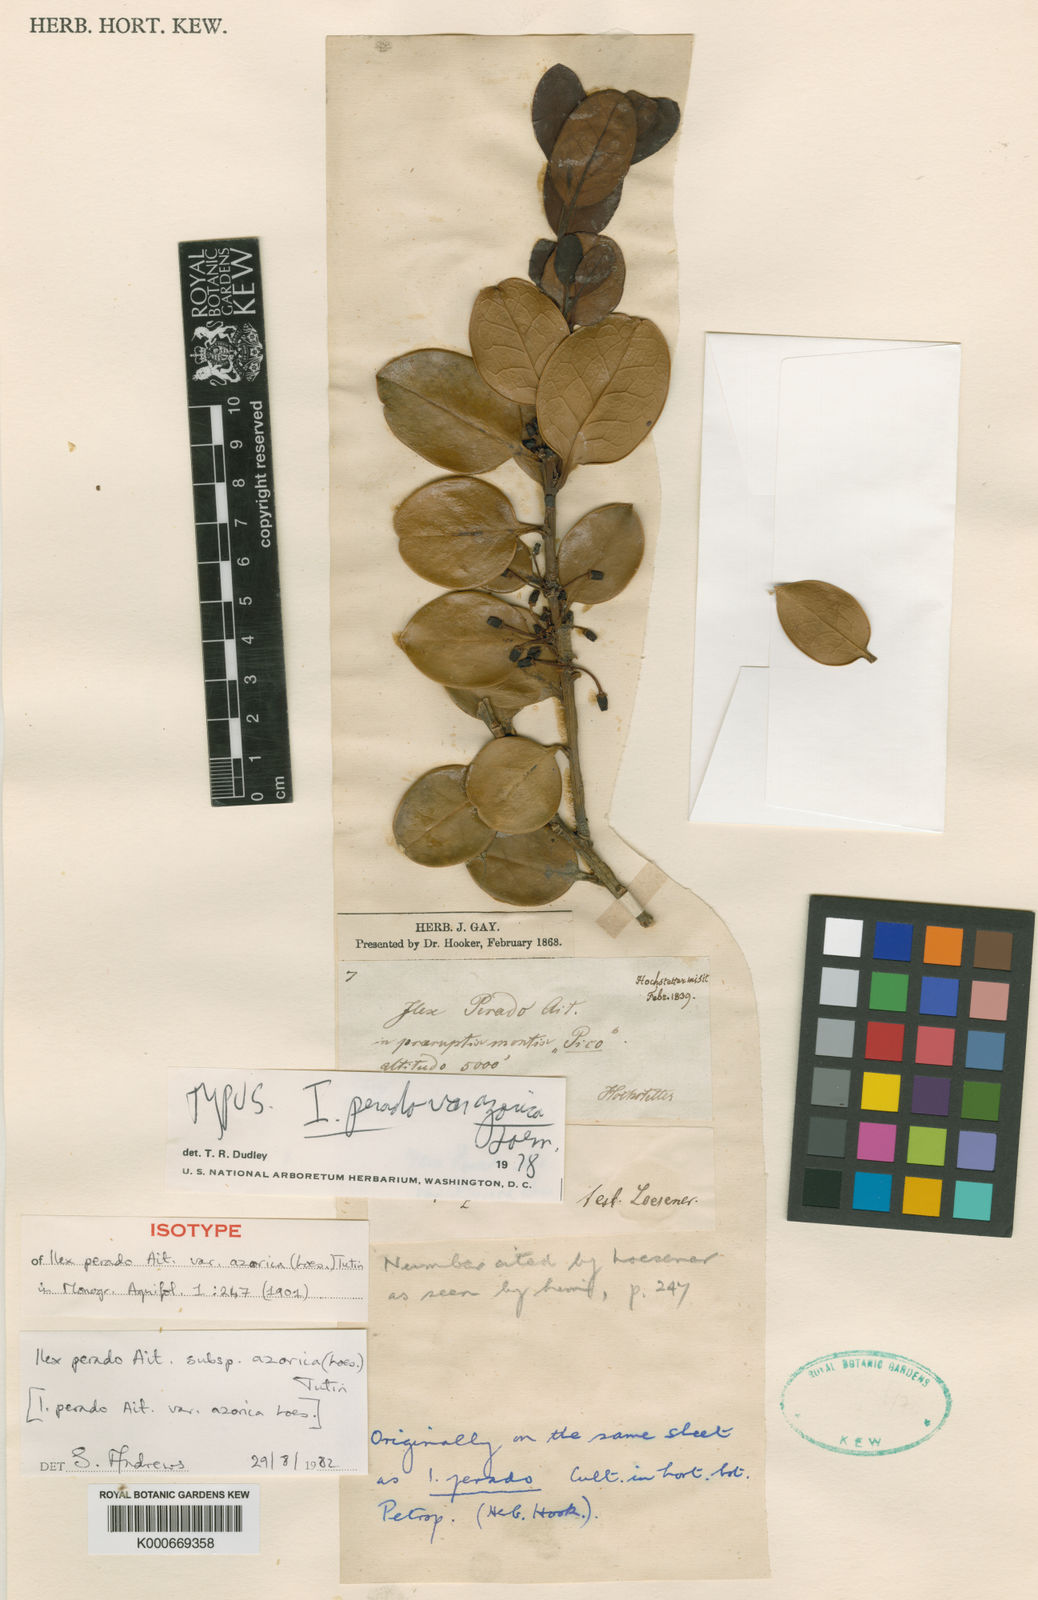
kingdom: Plantae
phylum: Tracheophyta
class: Magnoliopsida
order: Aquifoliales
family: Aquifoliaceae
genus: Ilex
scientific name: Ilex perado
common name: Madeira holly
